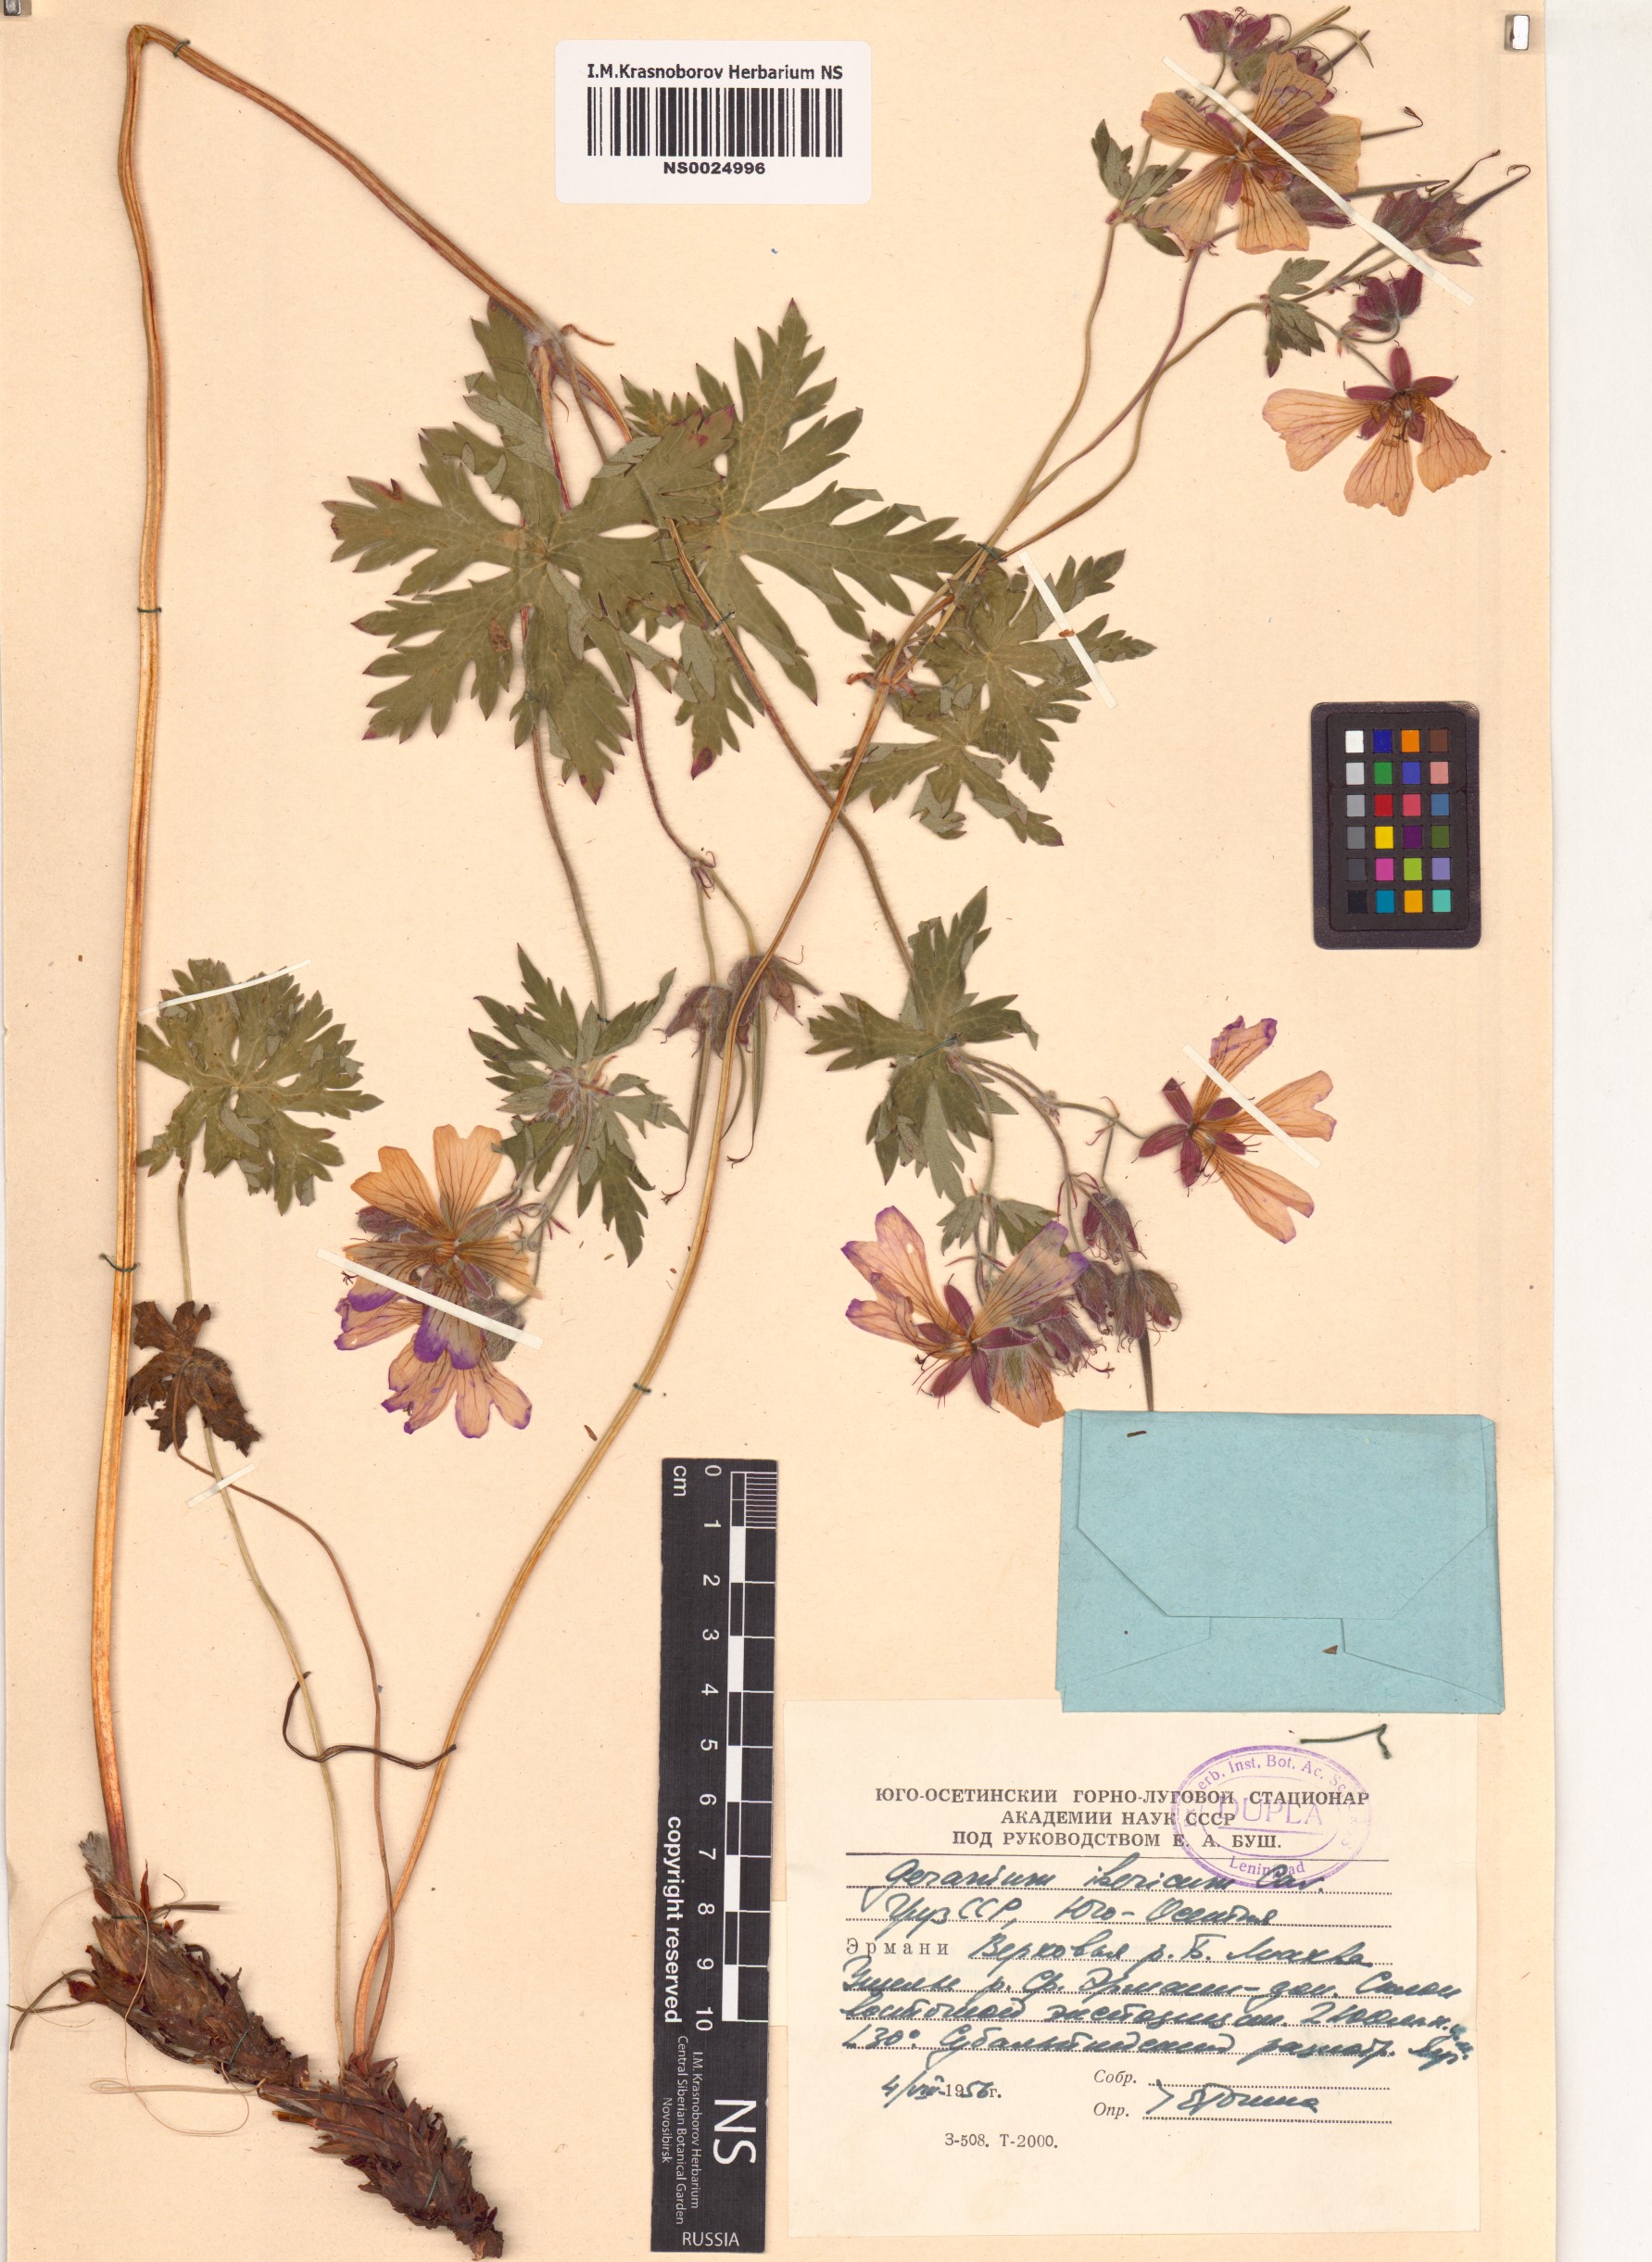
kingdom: Plantae
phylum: Tracheophyta
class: Magnoliopsida
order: Geraniales
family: Geraniaceae
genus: Geranium
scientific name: Geranium ibericum
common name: Caucasian crane's-bill
